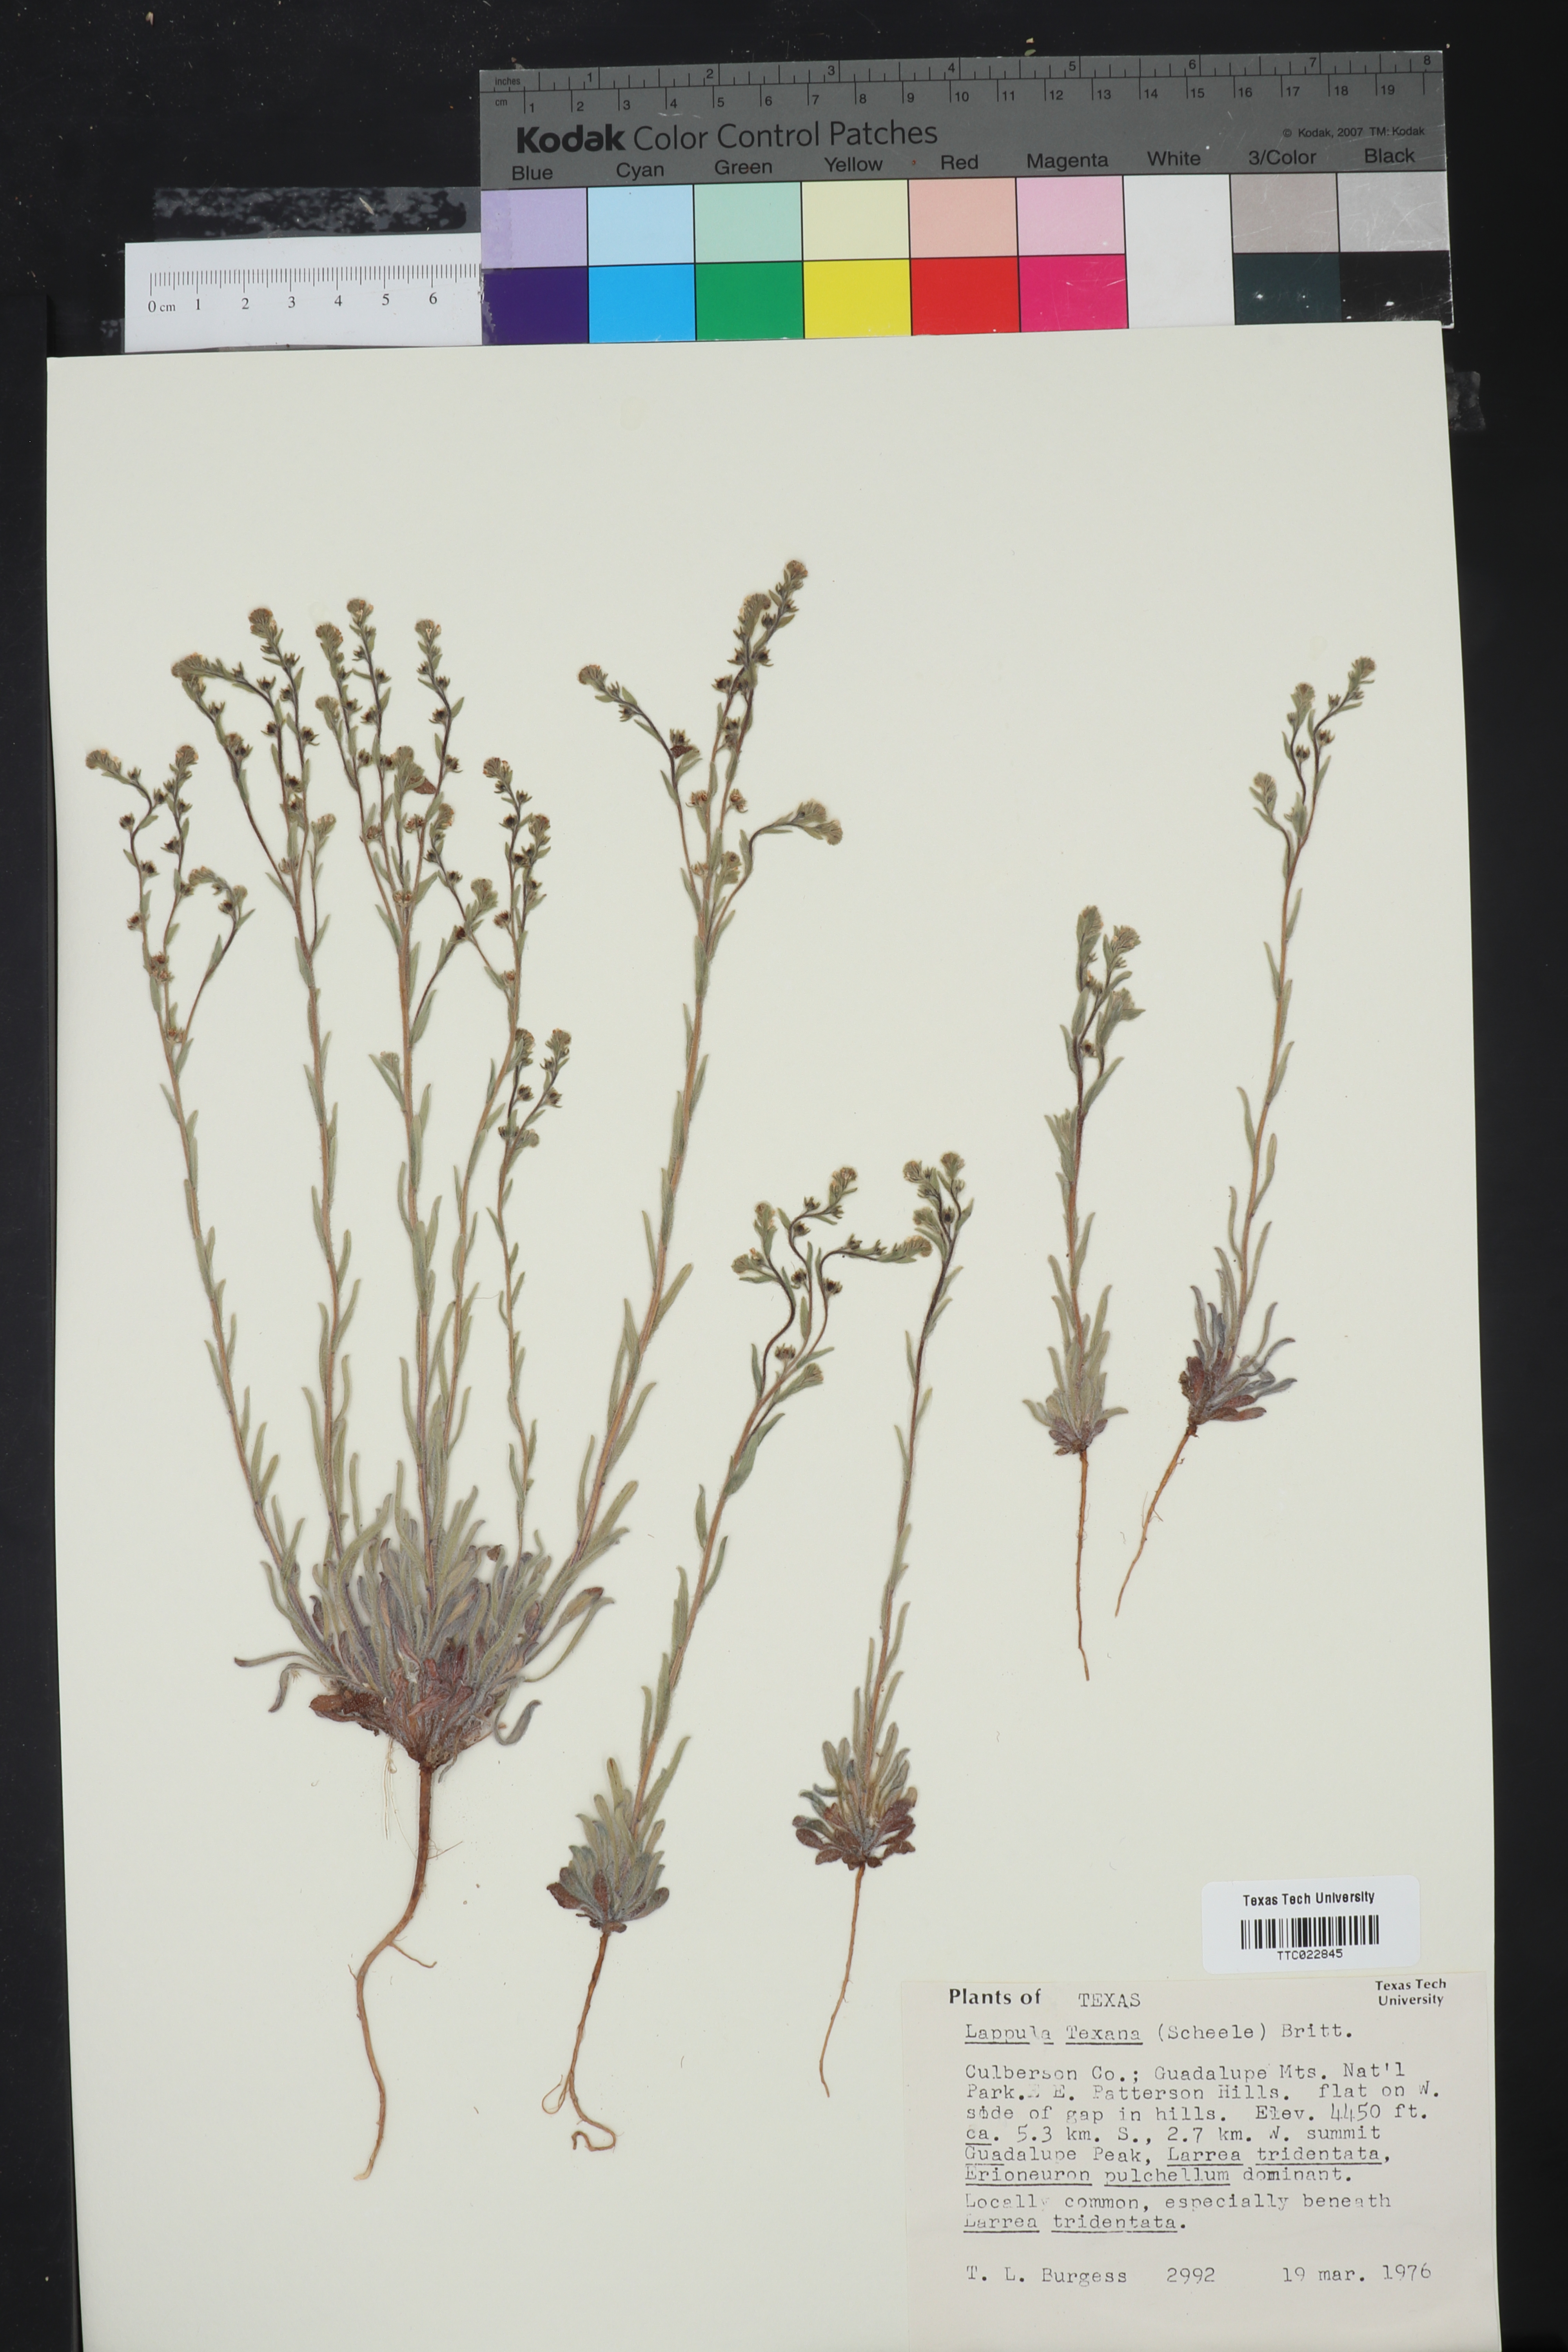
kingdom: Plantae
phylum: Tracheophyta
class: Magnoliopsida
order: Boraginales
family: Boraginaceae
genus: Lappula
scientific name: Lappula occidentalis
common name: Western stickseed
